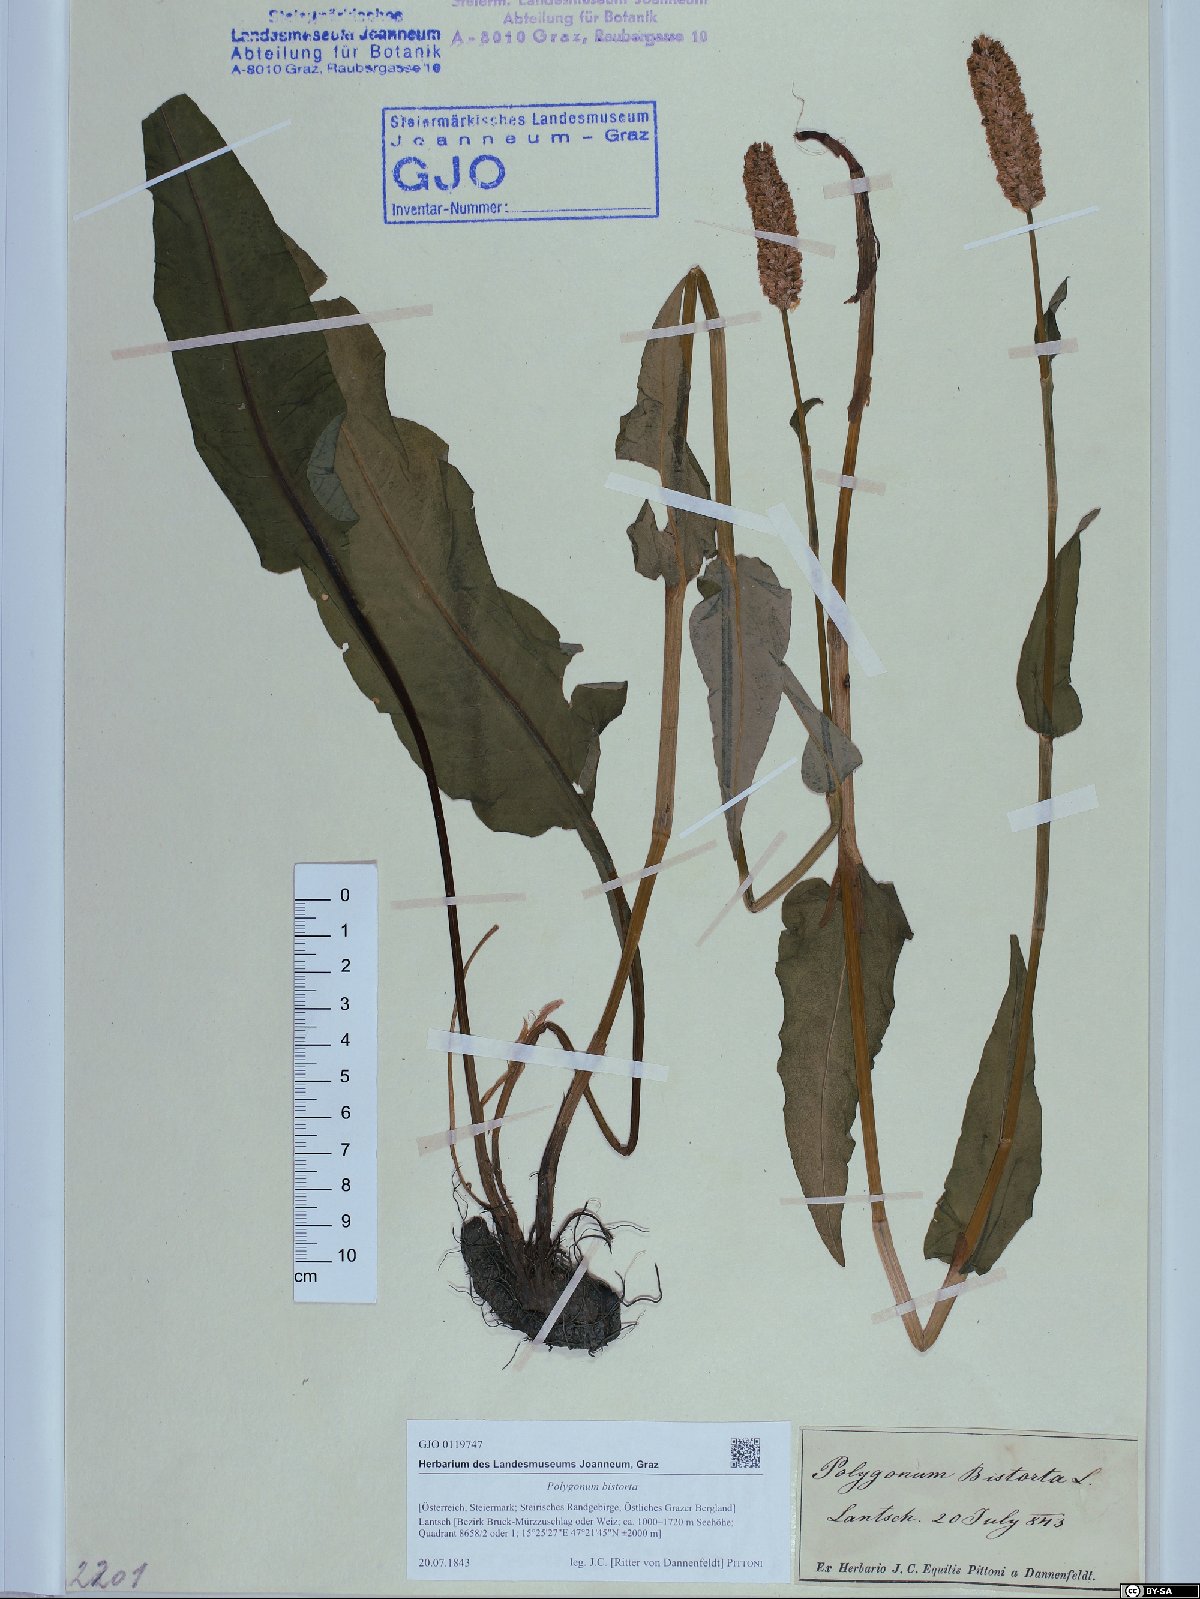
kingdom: Plantae
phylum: Tracheophyta
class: Magnoliopsida
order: Caryophyllales
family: Polygonaceae
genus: Bistorta
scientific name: Bistorta officinalis
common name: Common bistort
